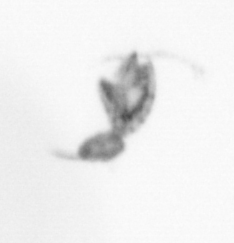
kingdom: Animalia
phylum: Arthropoda
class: Copepoda
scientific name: Copepoda
